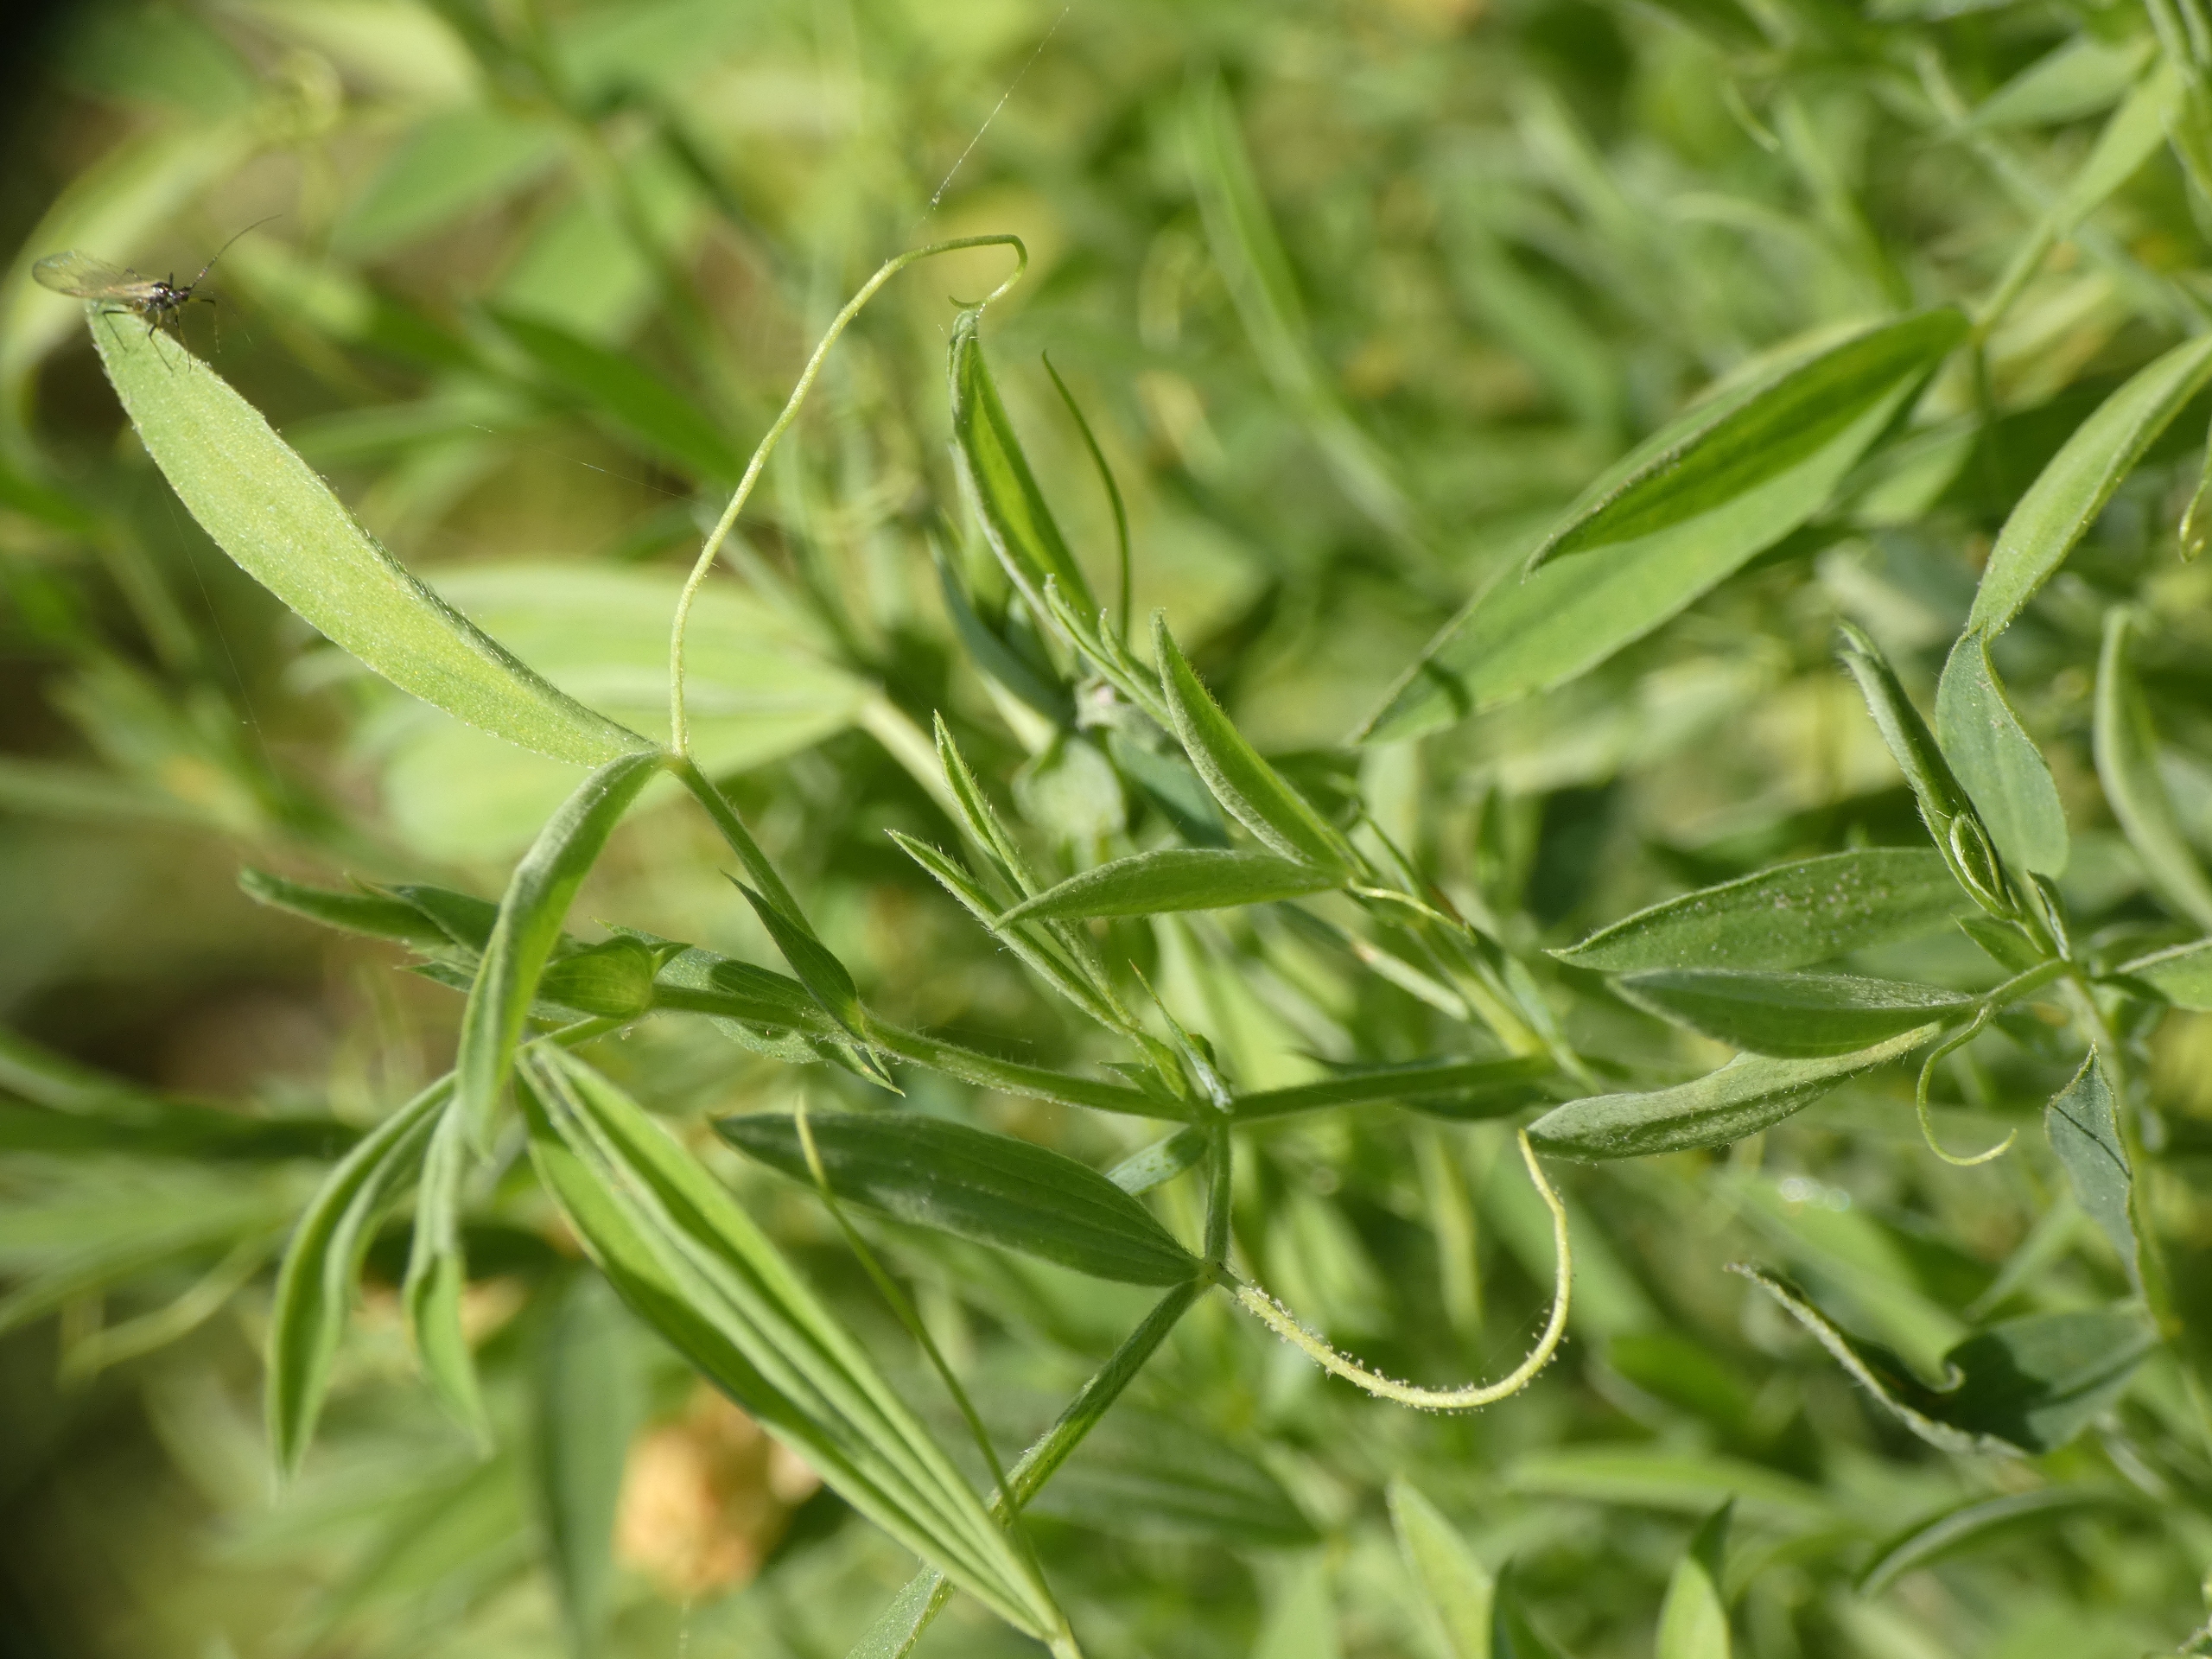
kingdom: Plantae
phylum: Tracheophyta
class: Magnoliopsida
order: Fabales
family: Fabaceae
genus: Lathyrus
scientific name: Lathyrus pratensis
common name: Gul fladbælg
